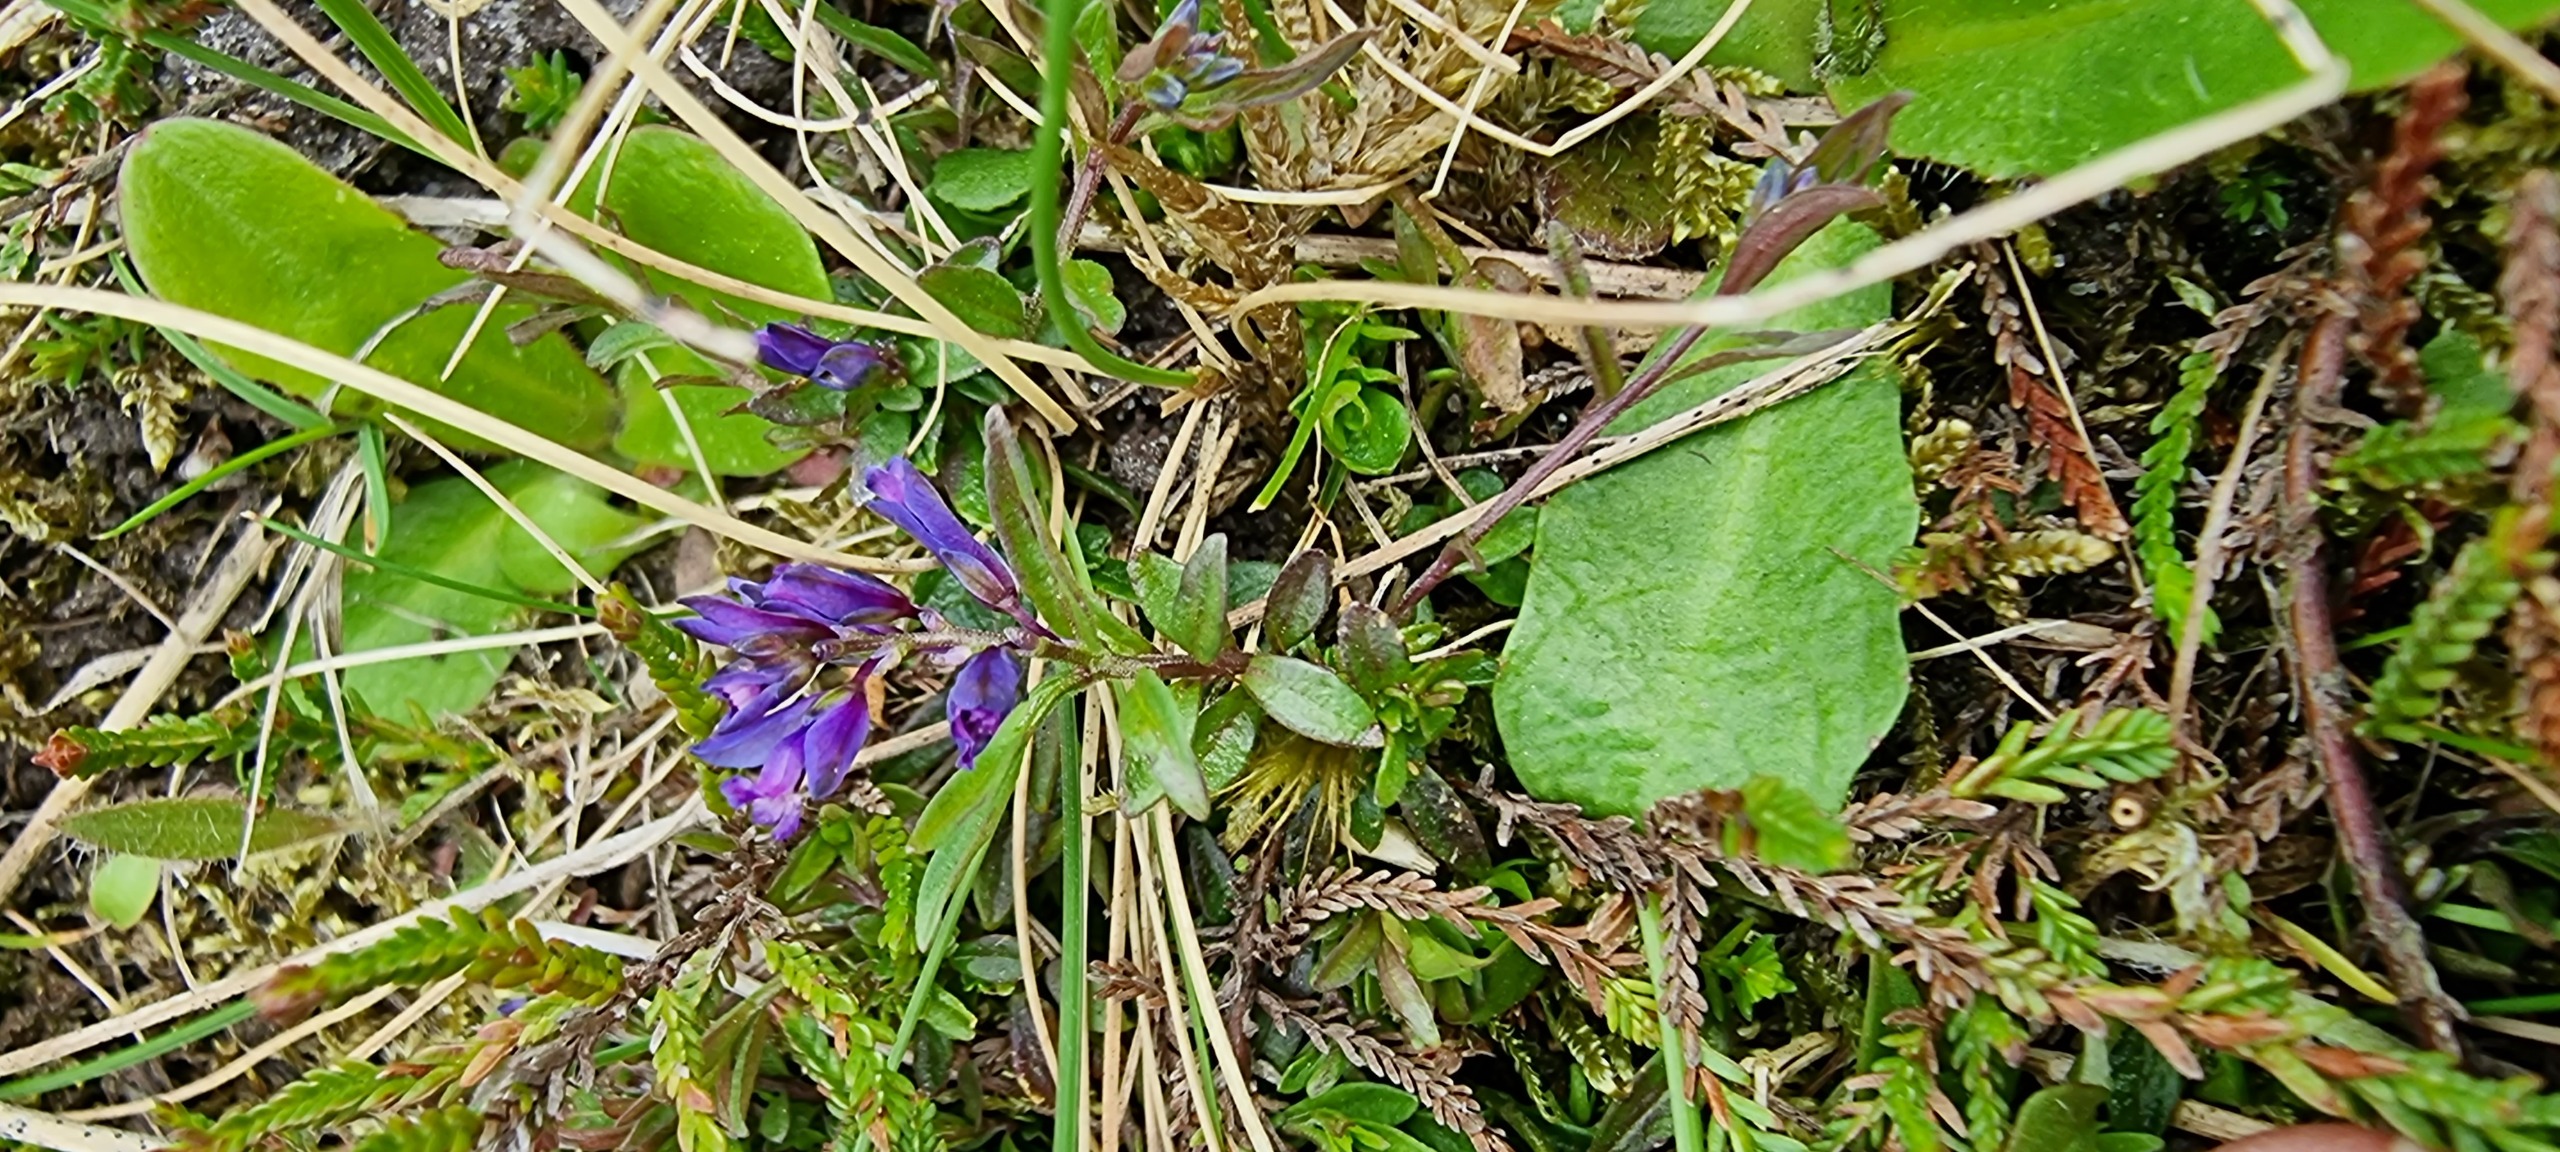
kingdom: Plantae
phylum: Tracheophyta
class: Magnoliopsida
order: Fabales
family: Polygalaceae
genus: Polygala
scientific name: Polygala serpyllifolia
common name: Spæd mælkeurt
